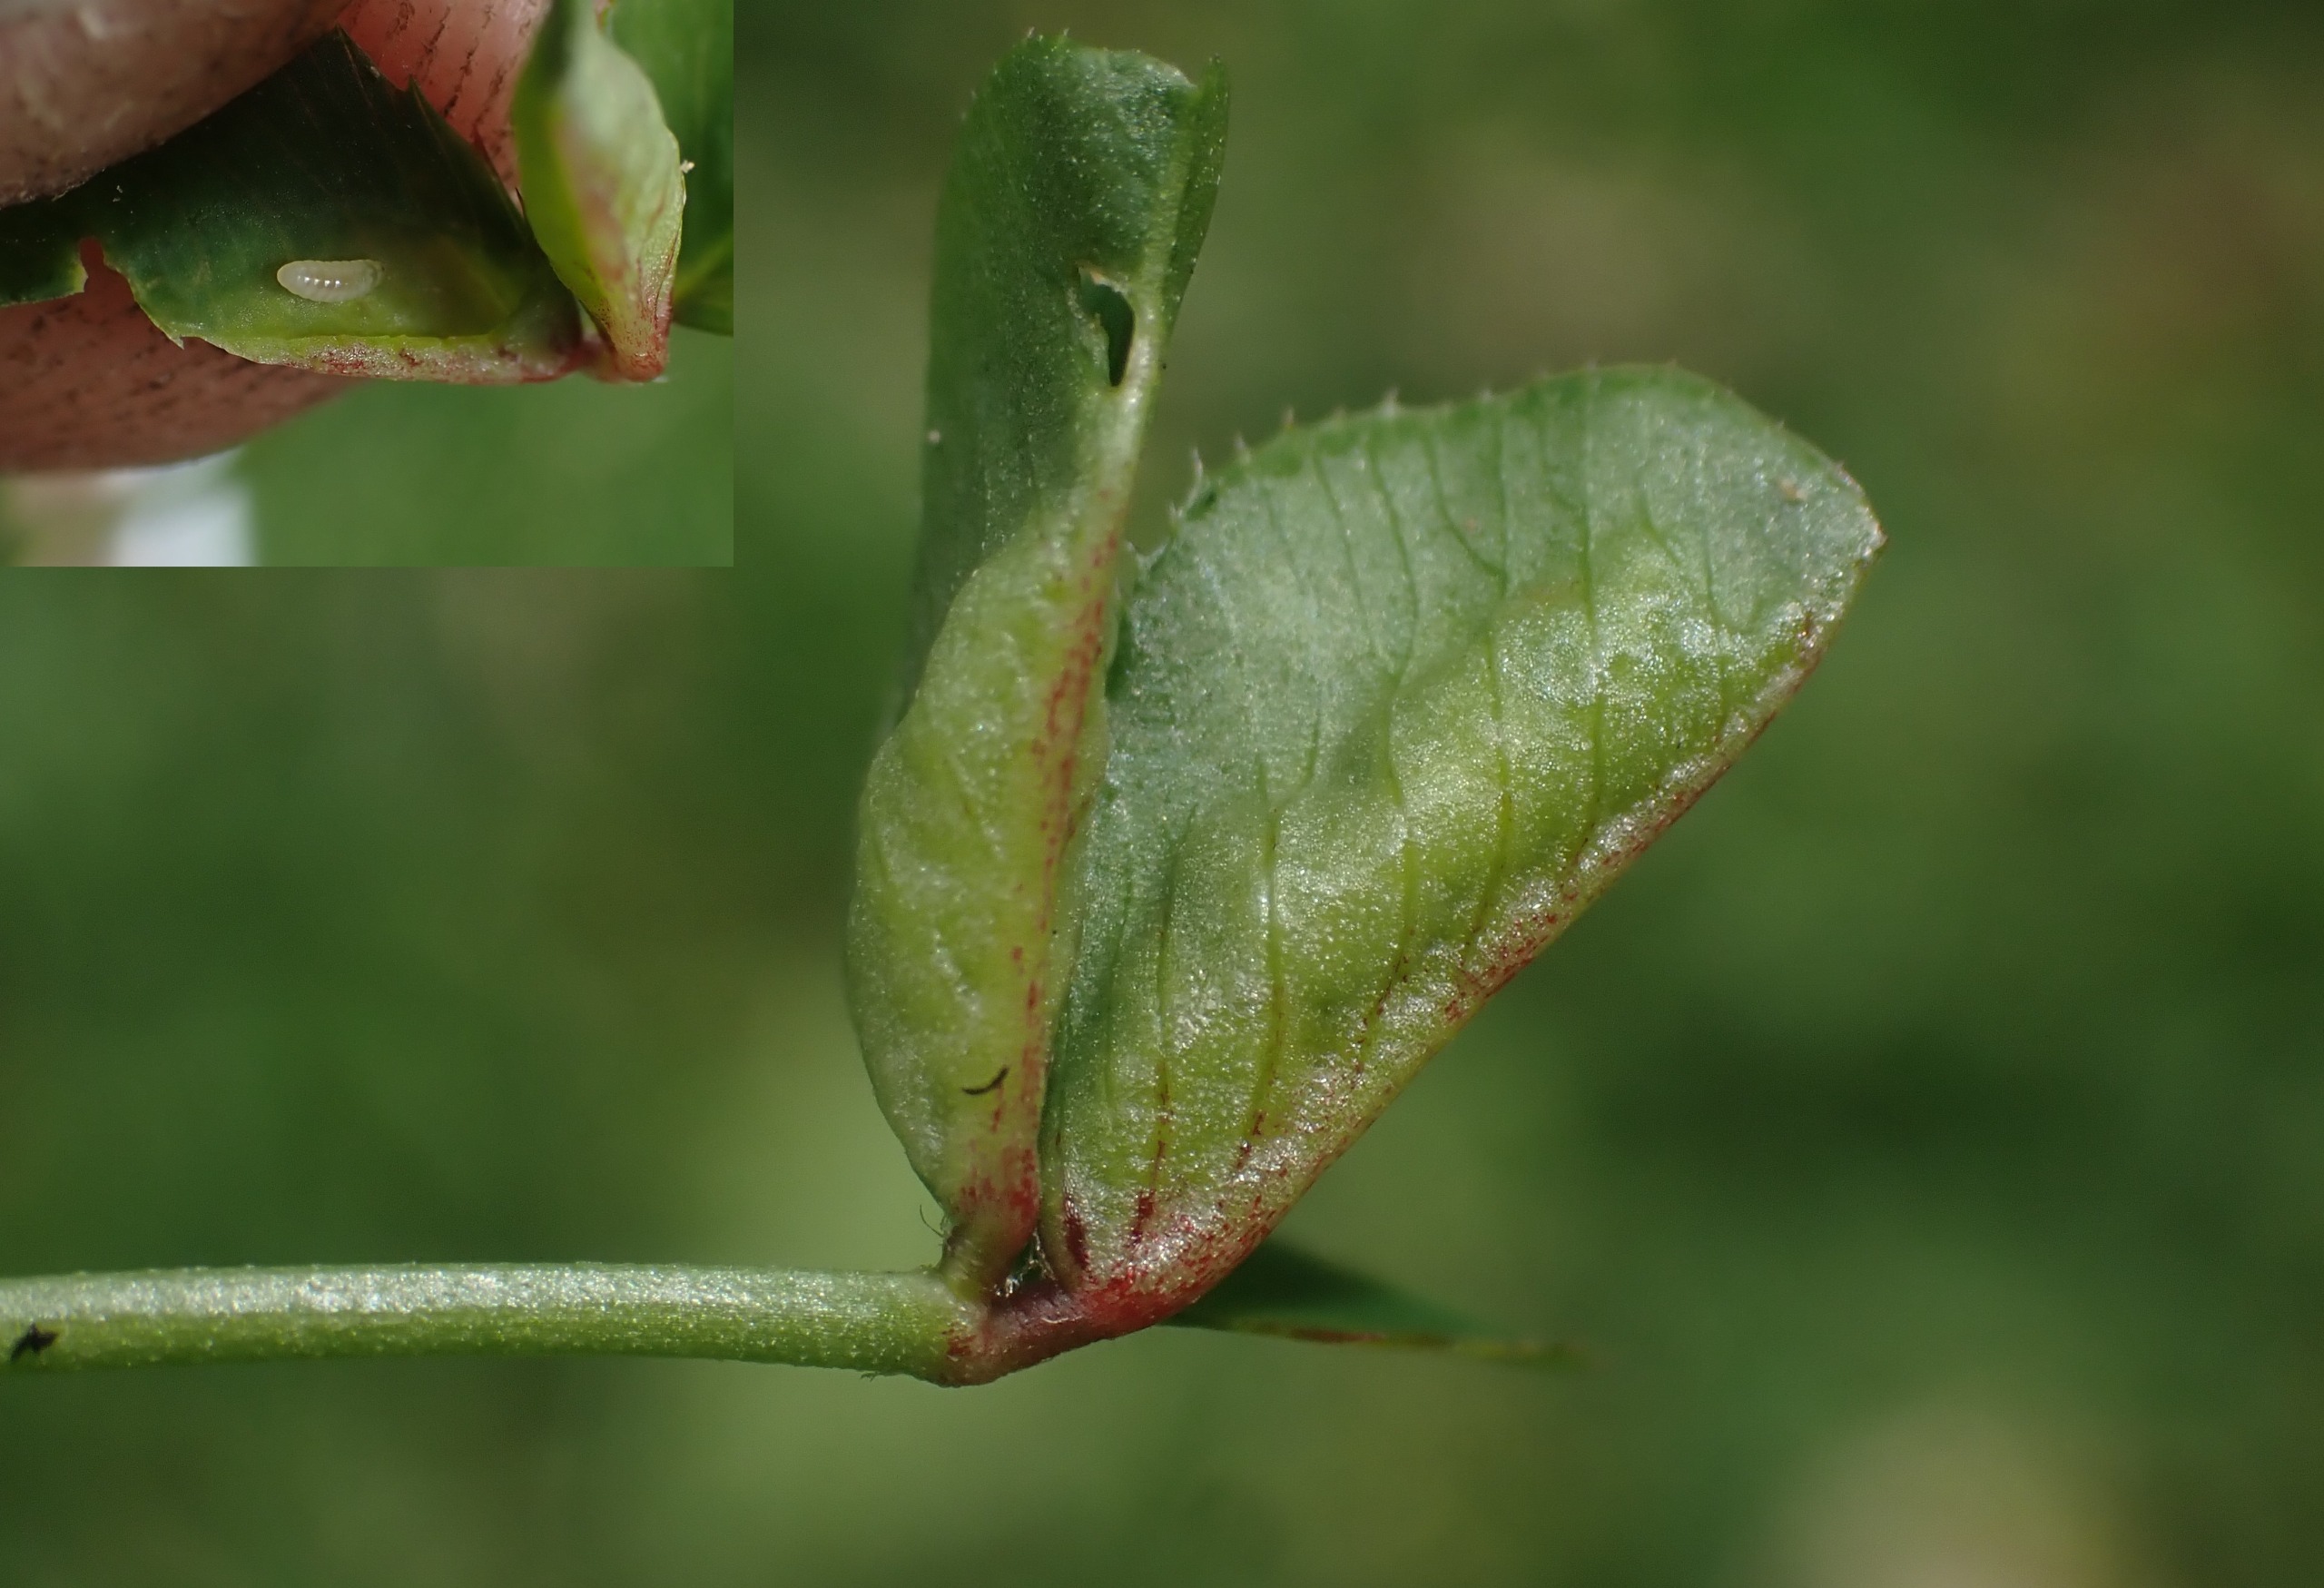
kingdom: Animalia
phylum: Arthropoda
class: Insecta
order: Diptera
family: Cecidomyiidae
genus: Dasineura
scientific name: Dasineura trifolii
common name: Kløverbladgalmyg
